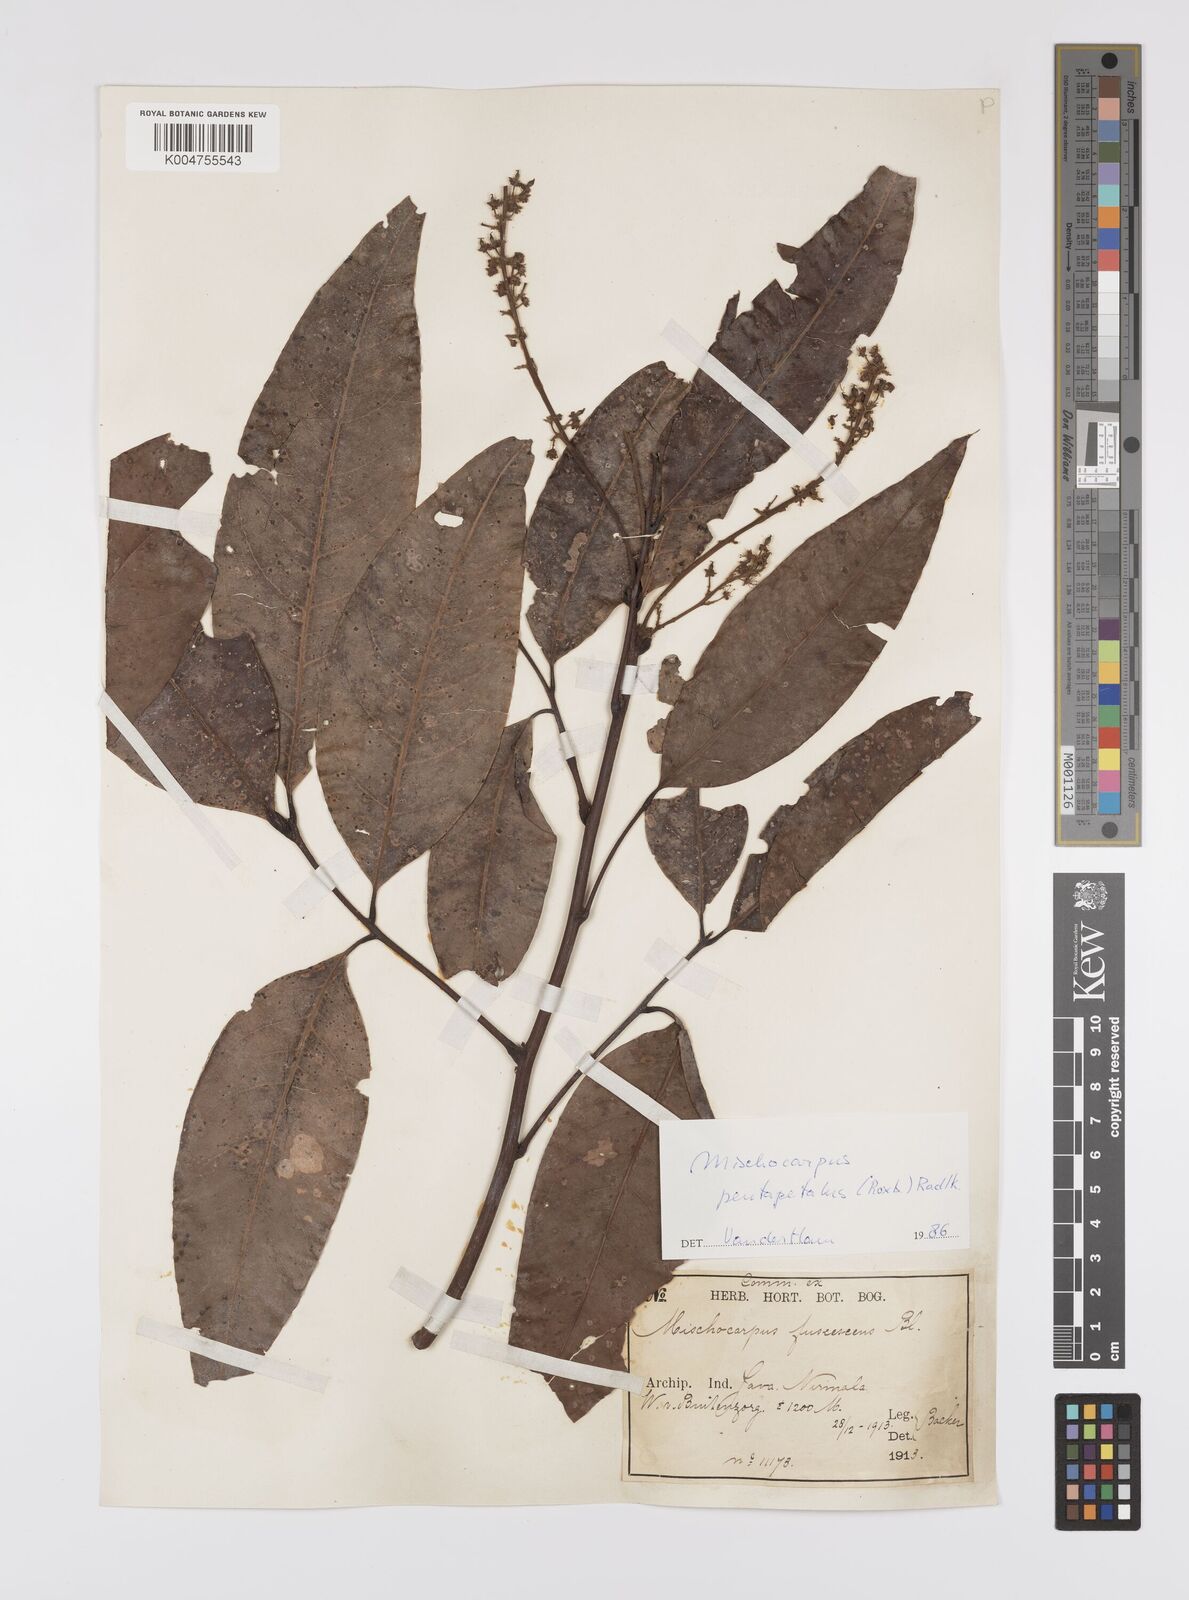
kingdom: Plantae
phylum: Tracheophyta
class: Magnoliopsida
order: Sapindales
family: Sapindaceae
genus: Mischocarpus
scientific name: Mischocarpus pentapetalus
